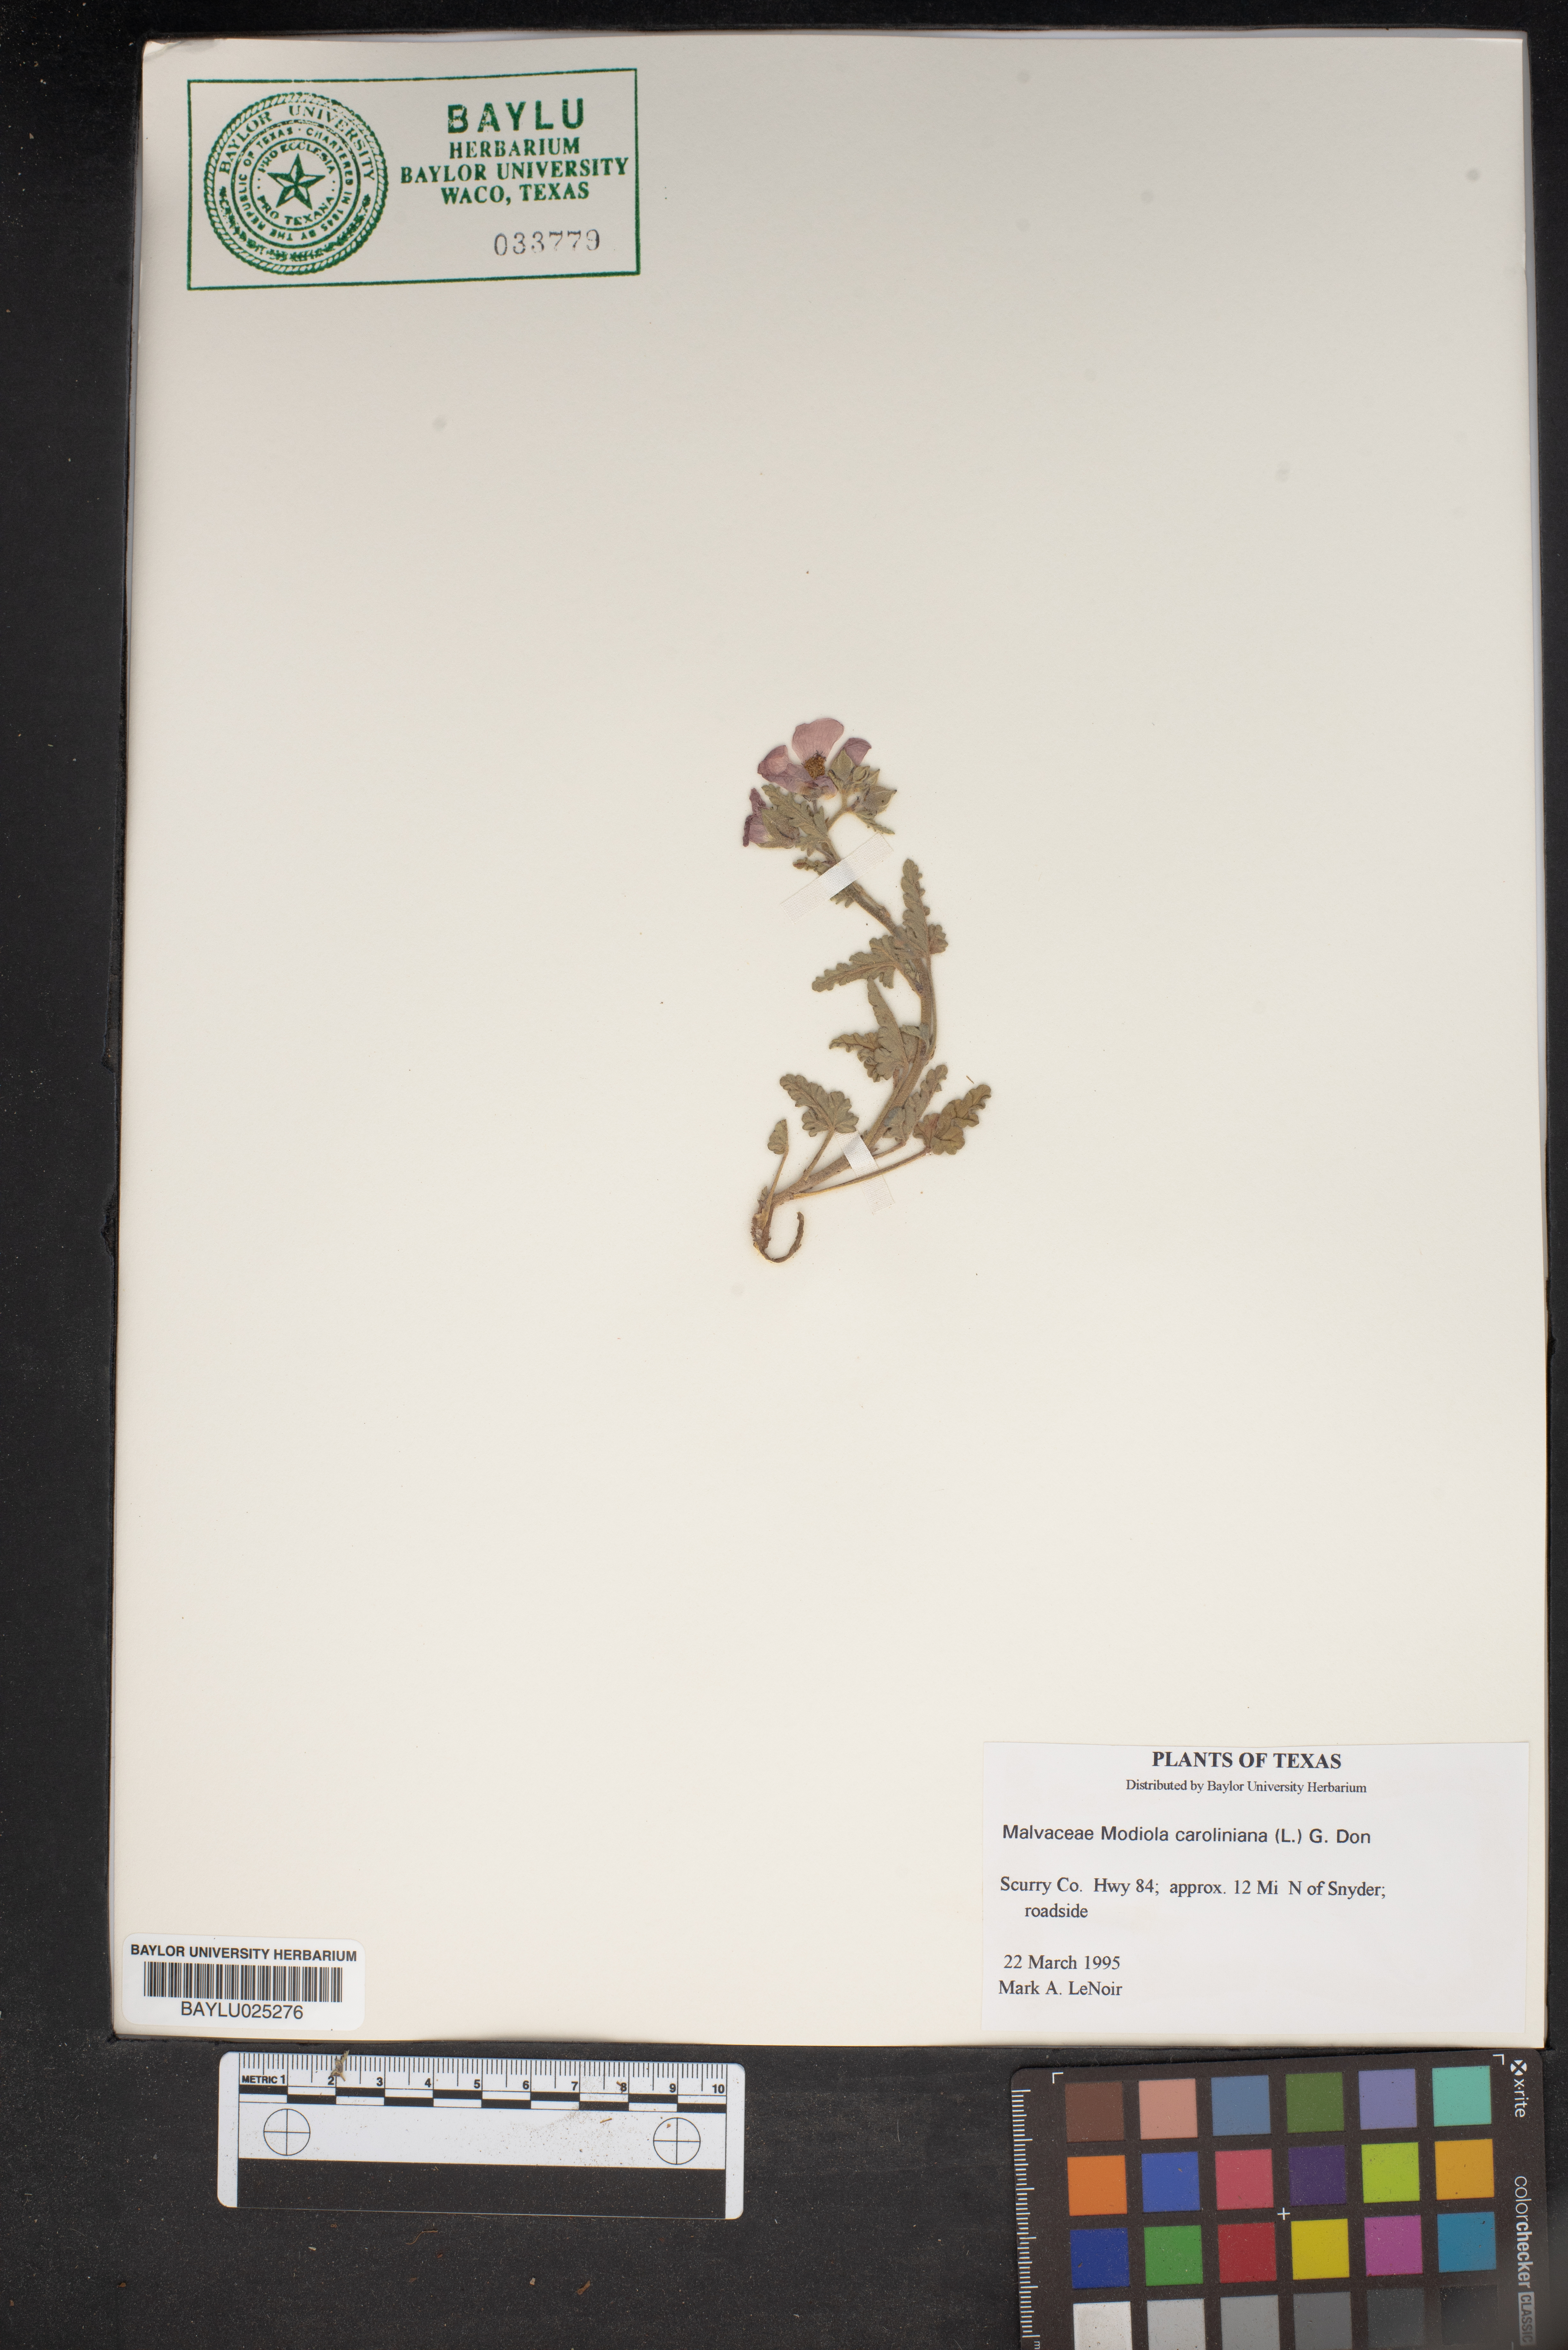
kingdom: Plantae
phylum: Tracheophyta
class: Magnoliopsida
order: Malvales
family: Malvaceae
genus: Modiola
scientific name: Modiola caroliniana
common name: Carolina bristlemallow
